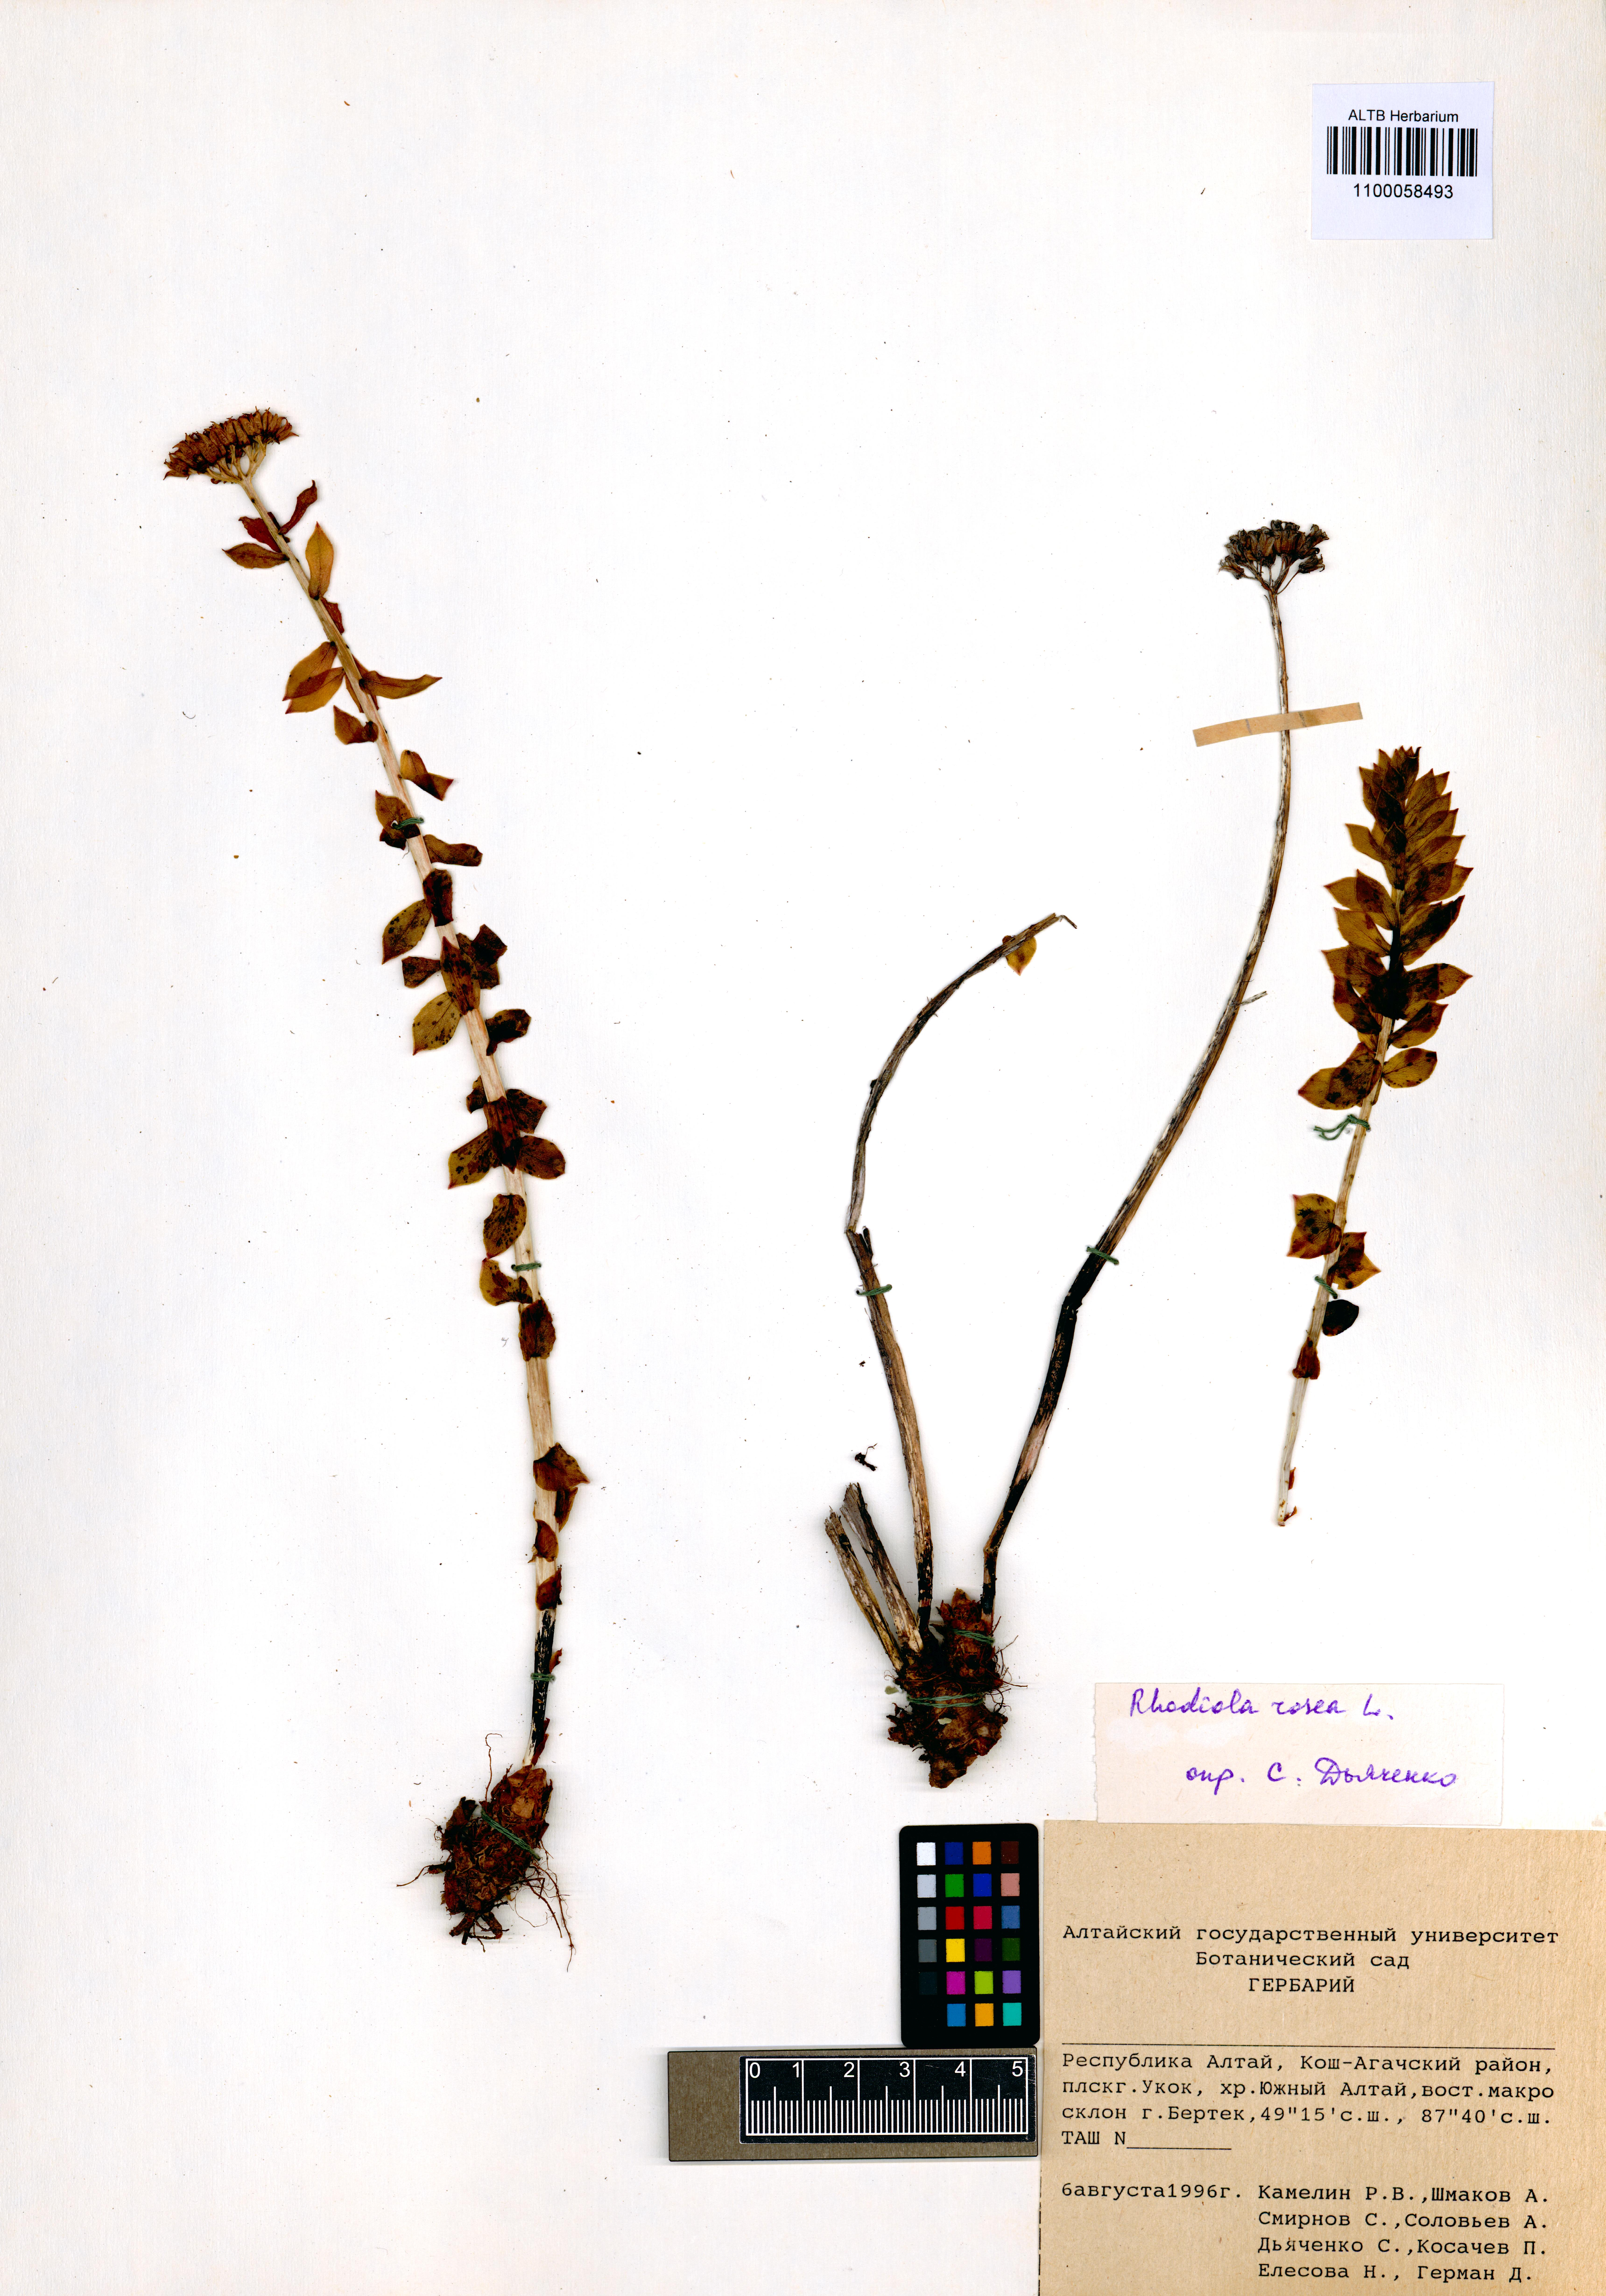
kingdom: Plantae
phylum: Tracheophyta
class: Magnoliopsida
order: Saxifragales
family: Crassulaceae
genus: Rhodiola
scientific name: Rhodiola rosea
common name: Roseroot
